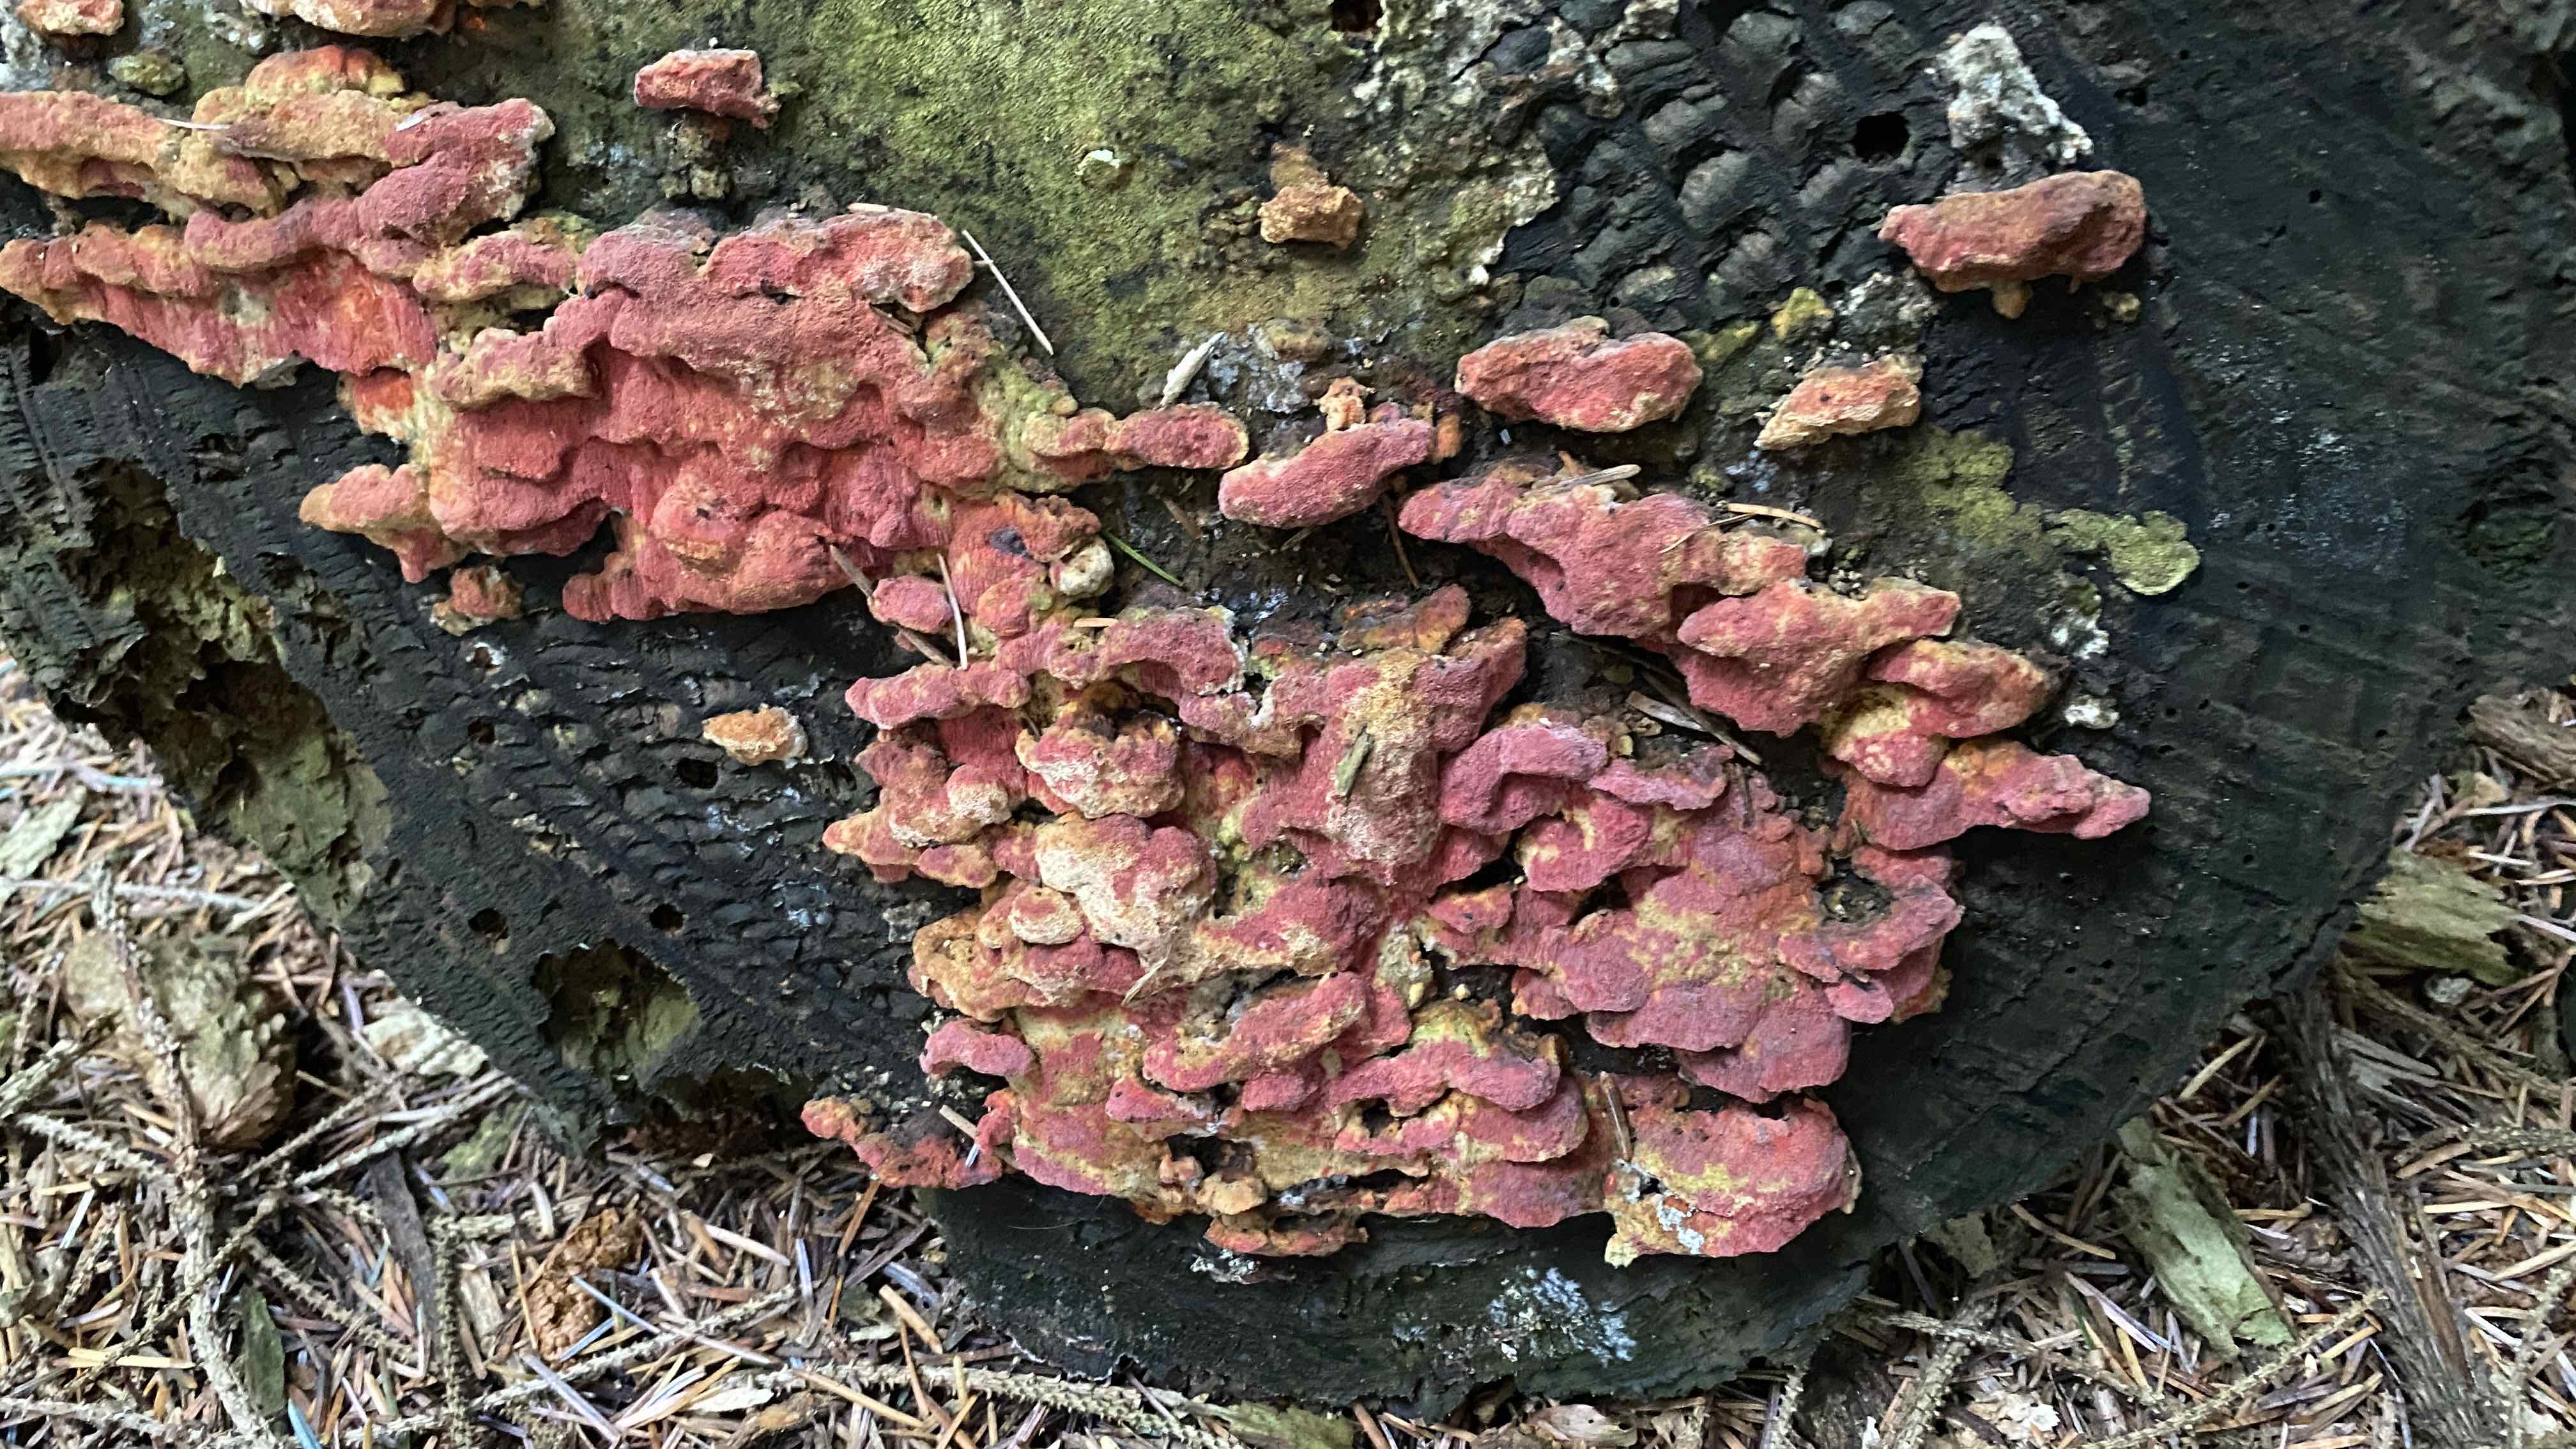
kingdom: Fungi
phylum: Basidiomycota
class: Agaricomycetes
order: Polyporales
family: Fomitopsidaceae
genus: Neoantrodia
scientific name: Neoantrodia serialis
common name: række-sejporesvamp
